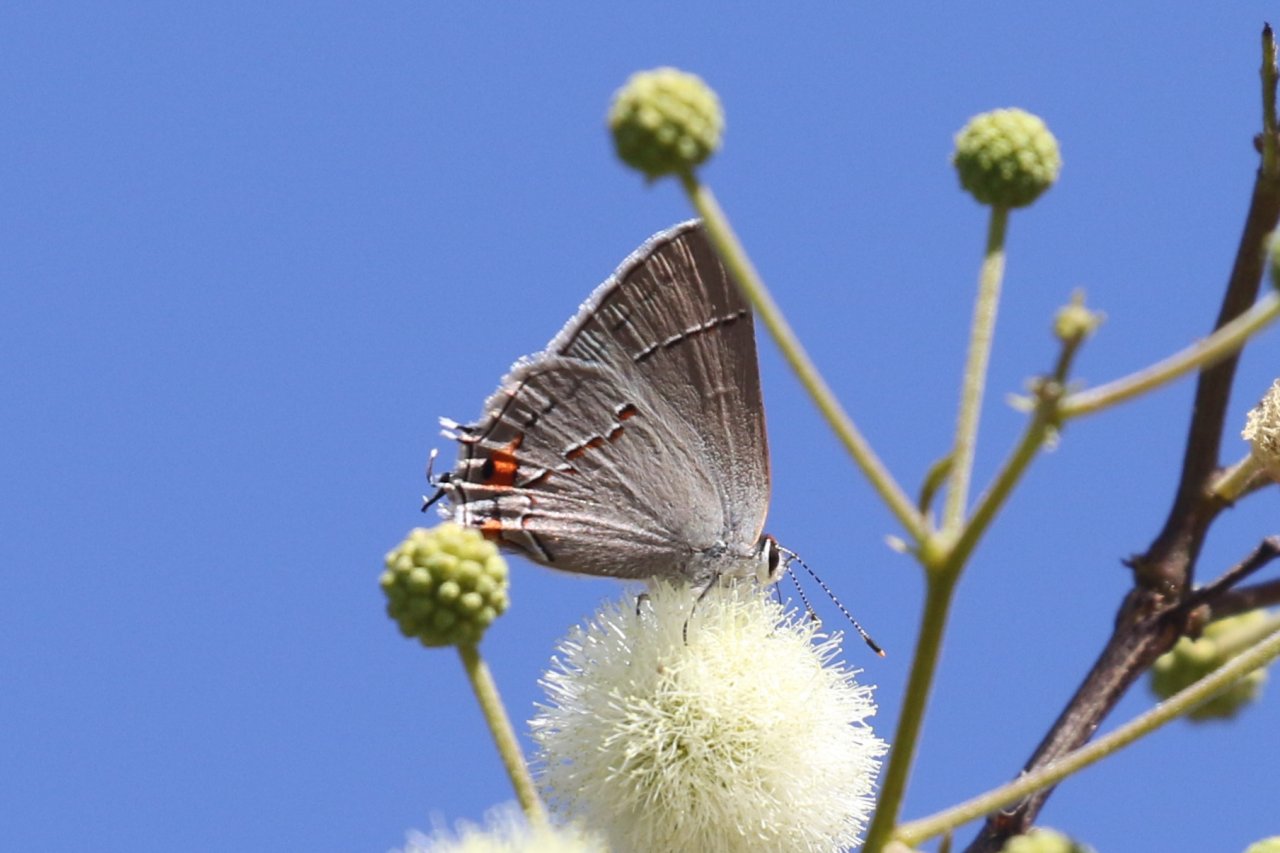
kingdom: Animalia
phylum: Arthropoda
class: Insecta
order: Lepidoptera
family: Lycaenidae
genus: Strymon
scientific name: Strymon melinus
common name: Gray Hairstreak
